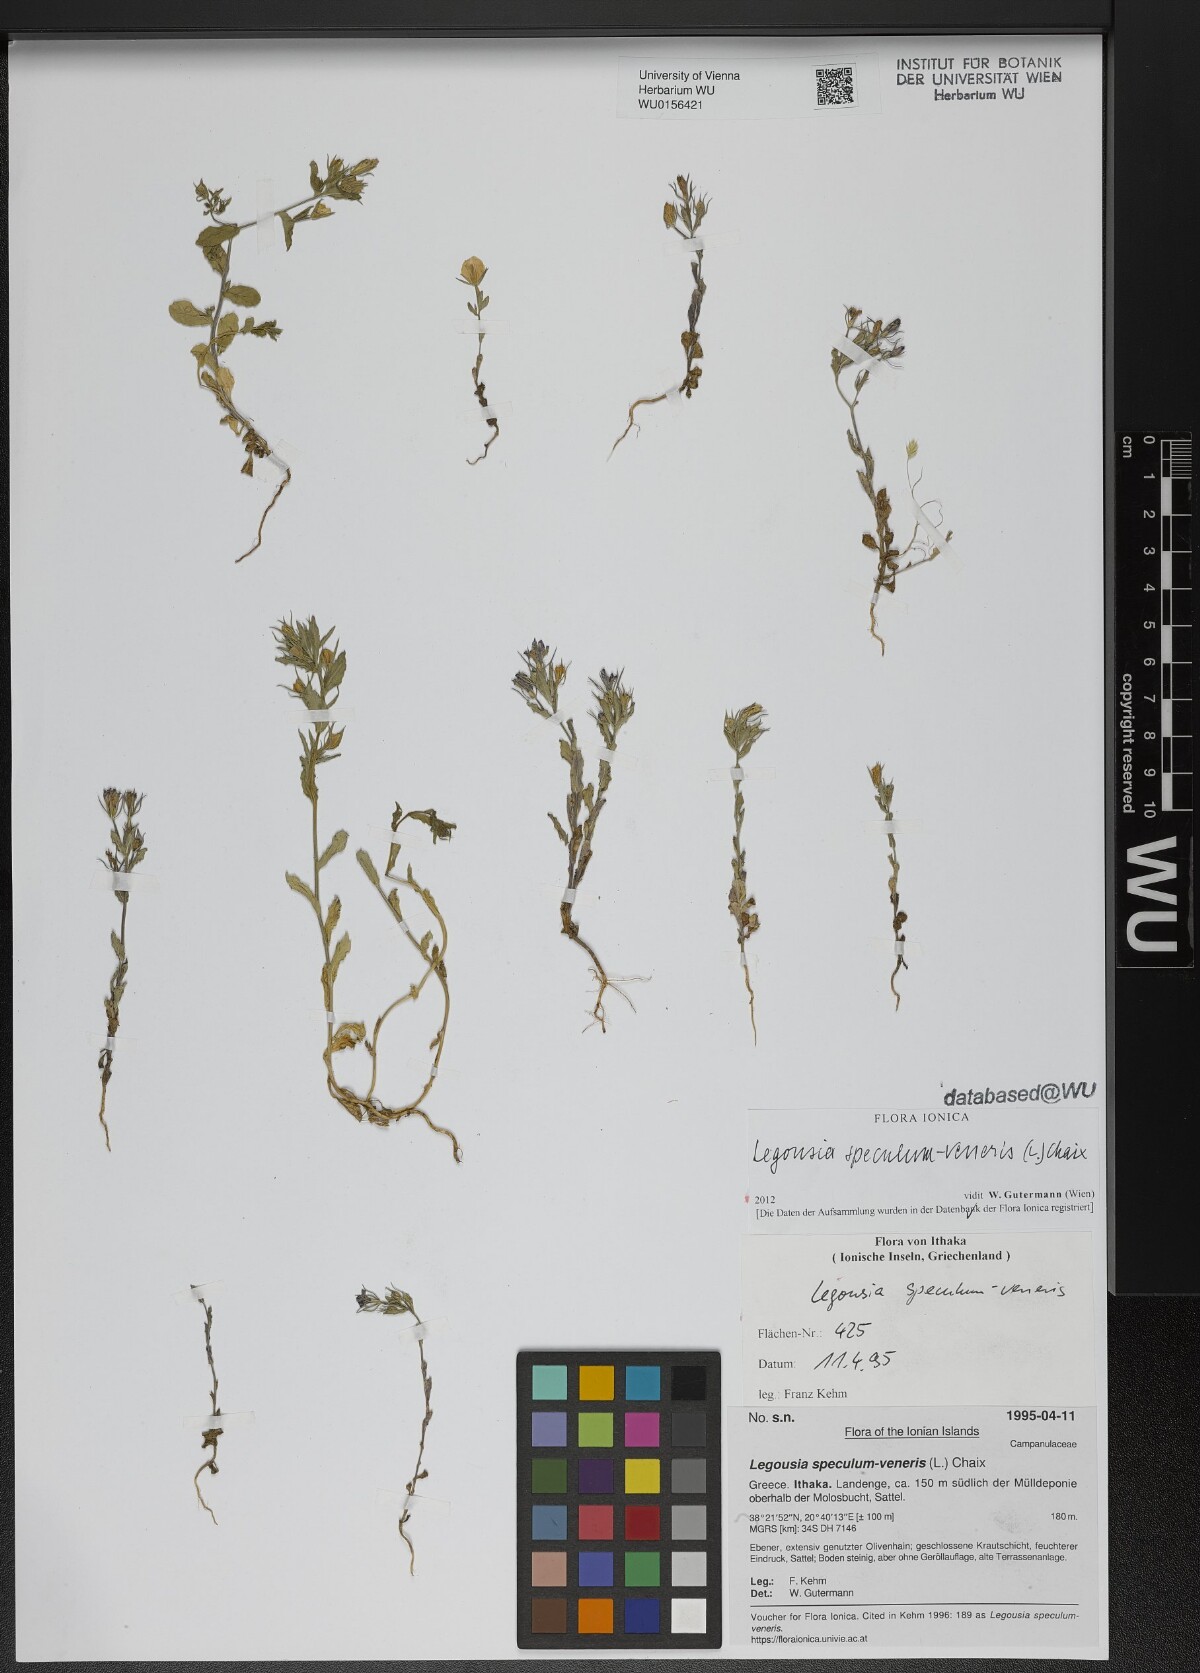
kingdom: Plantae
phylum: Tracheophyta
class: Magnoliopsida
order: Asterales
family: Campanulaceae
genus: Legousia
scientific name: Legousia speculum-veneris
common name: Large venus's-looking-glass
